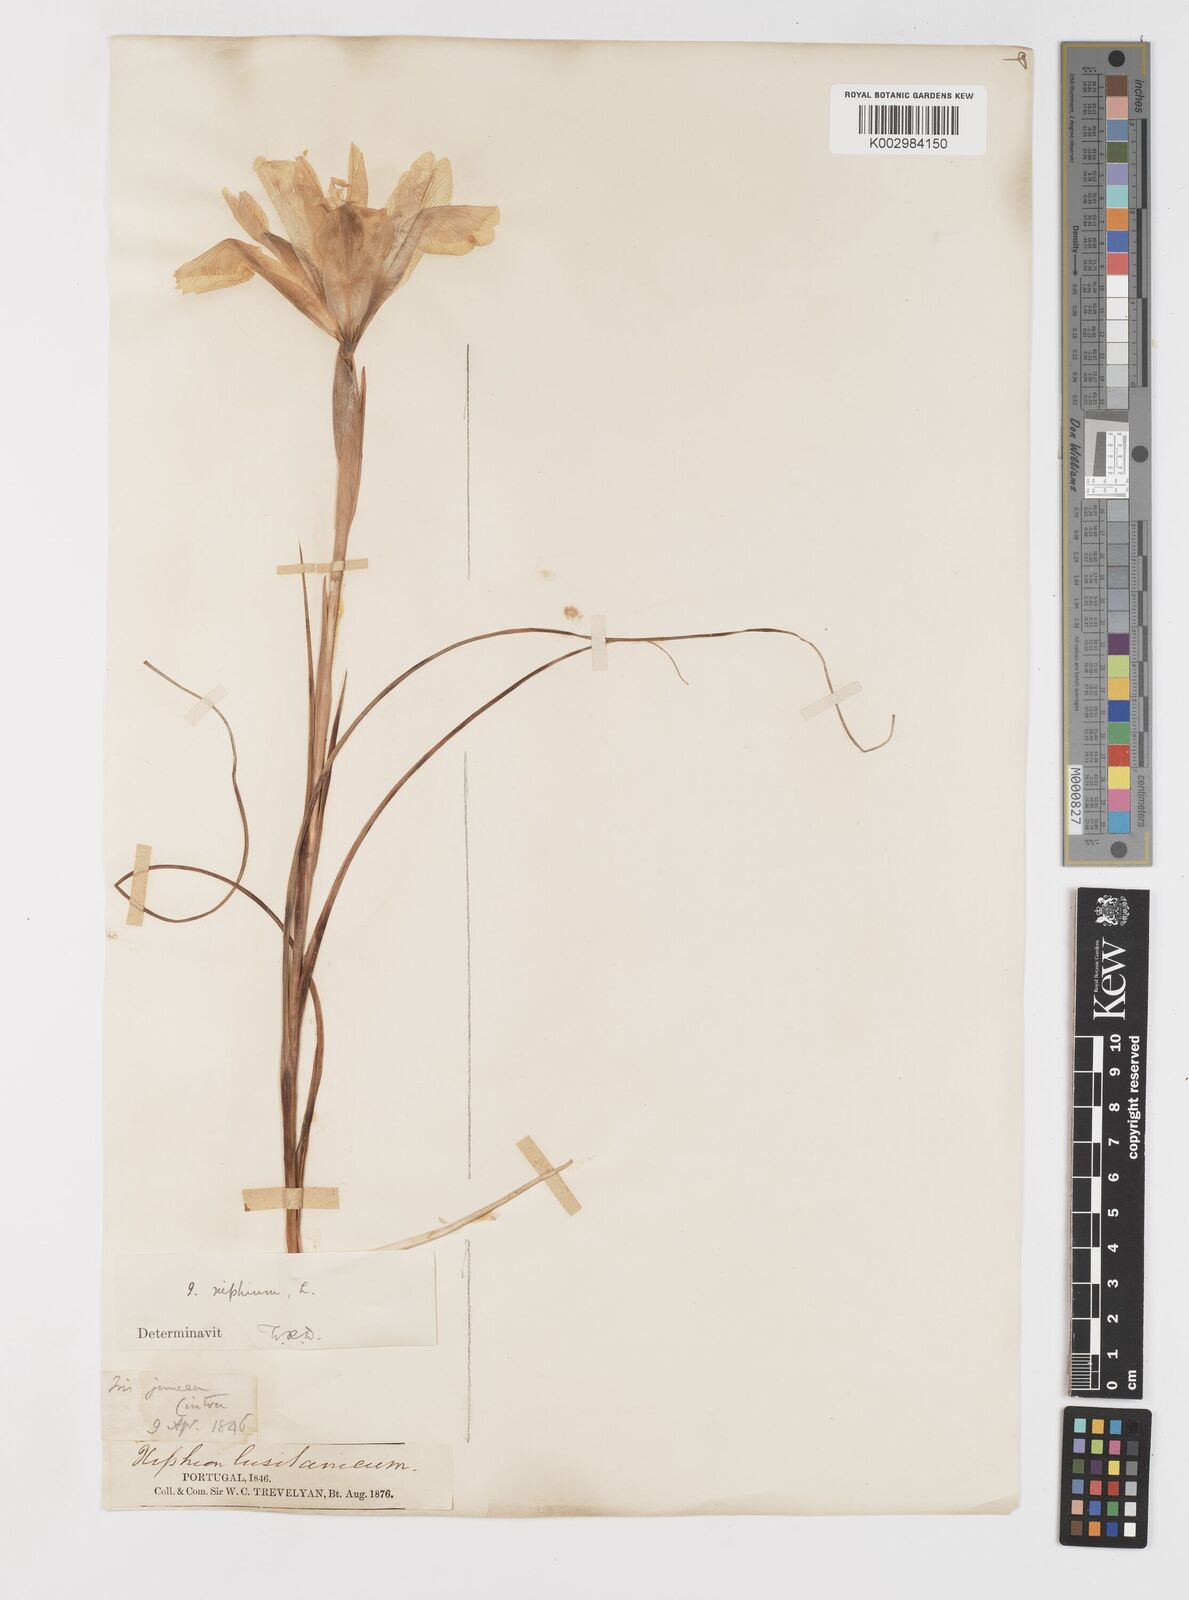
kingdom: Plantae
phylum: Tracheophyta
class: Liliopsida
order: Asparagales
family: Iridaceae
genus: Iris
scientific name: Iris xiphium
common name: Spanish iris
